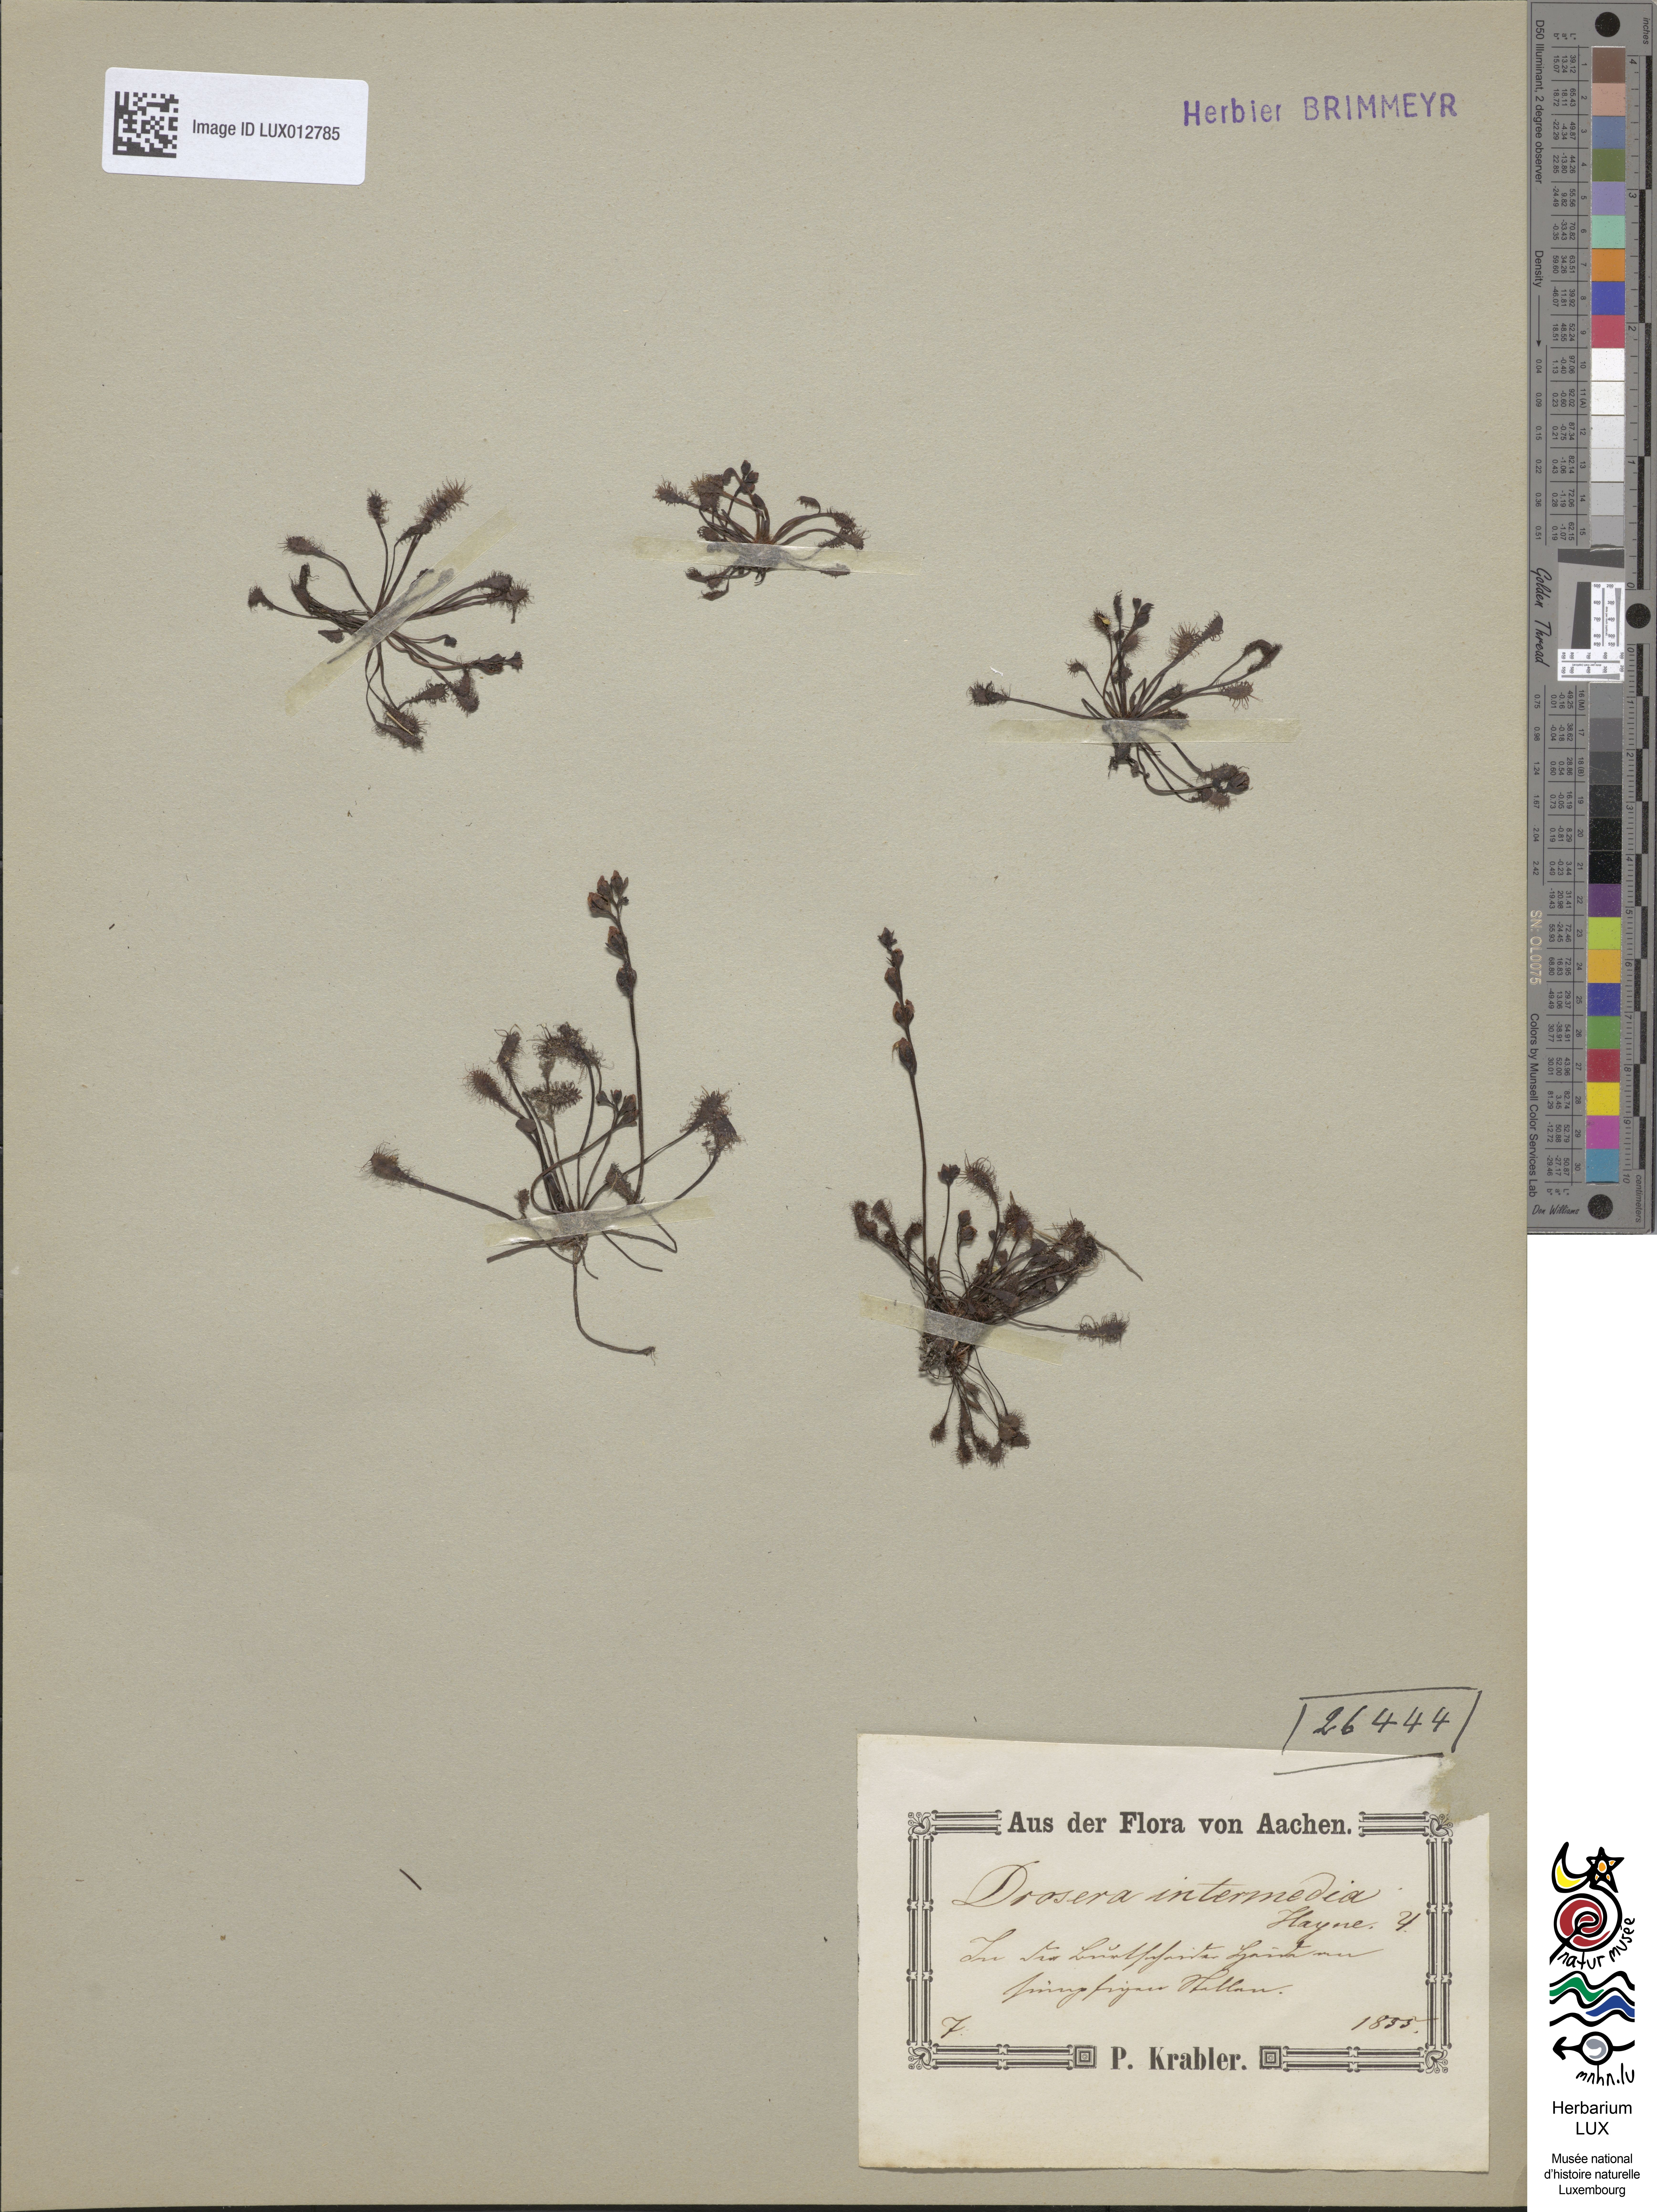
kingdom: Plantae
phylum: Tracheophyta
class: Magnoliopsida
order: Caryophyllales
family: Droseraceae
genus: Drosera
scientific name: Drosera intermedia
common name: Oblong-leaved sundew
